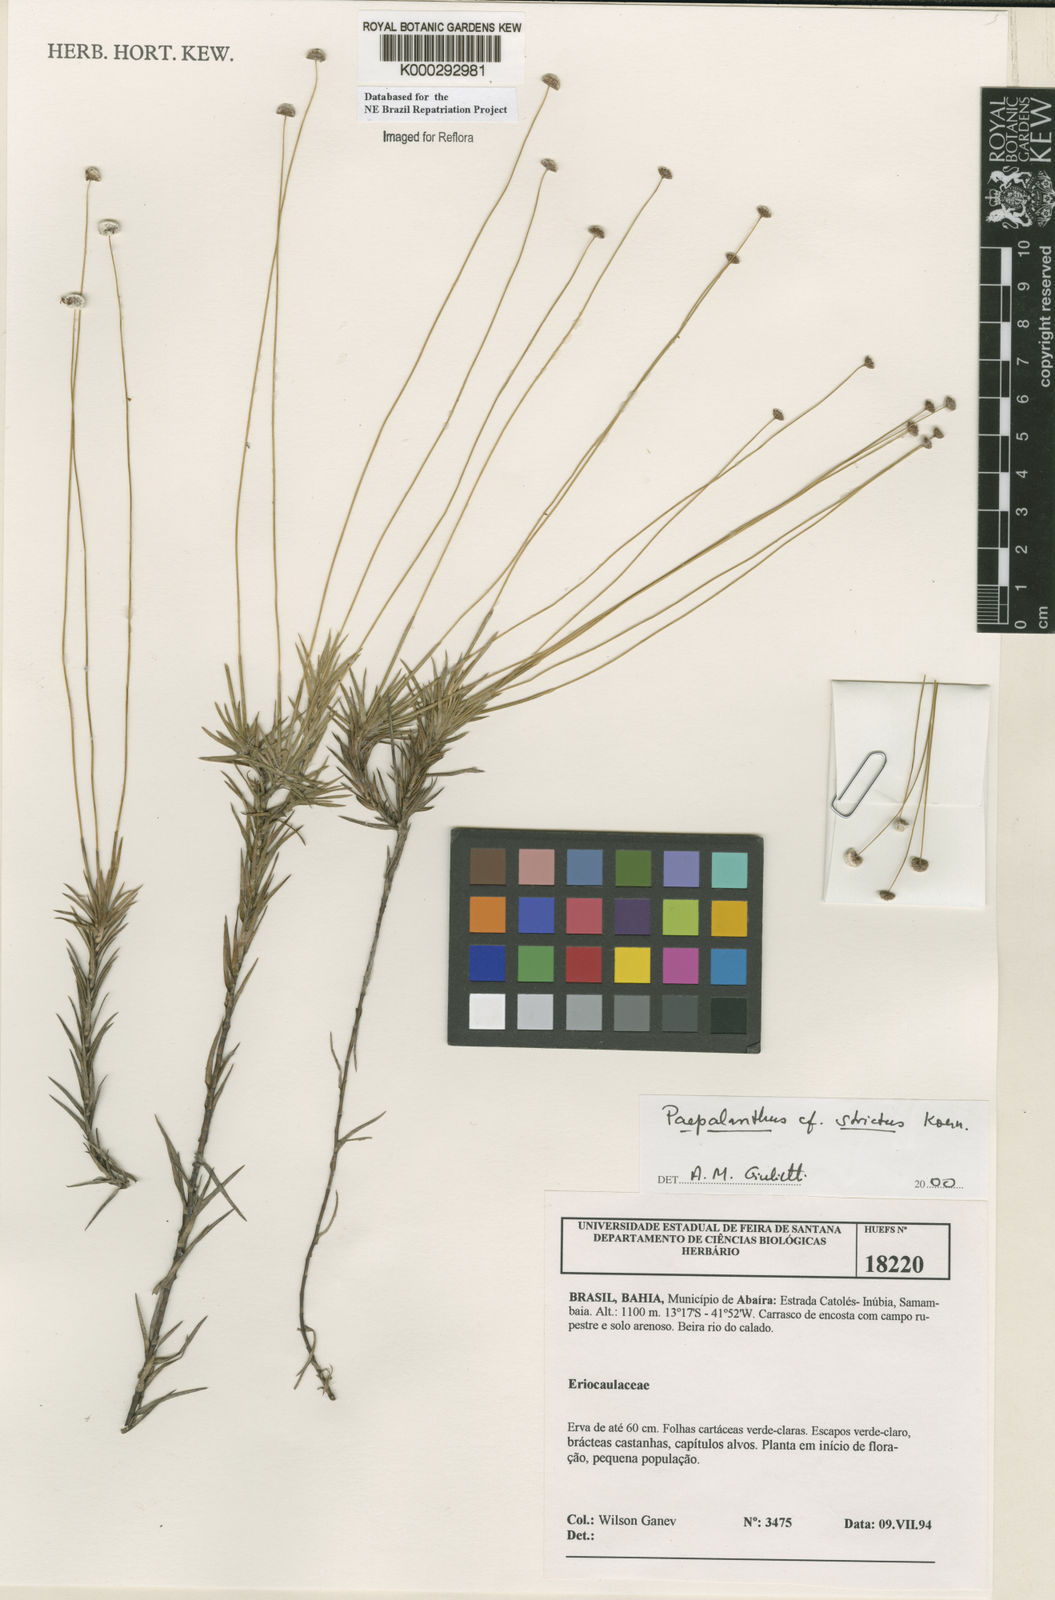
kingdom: Plantae
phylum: Tracheophyta
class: Liliopsida
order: Poales
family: Eriocaulaceae
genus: Paepalanthus
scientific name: Paepalanthus
